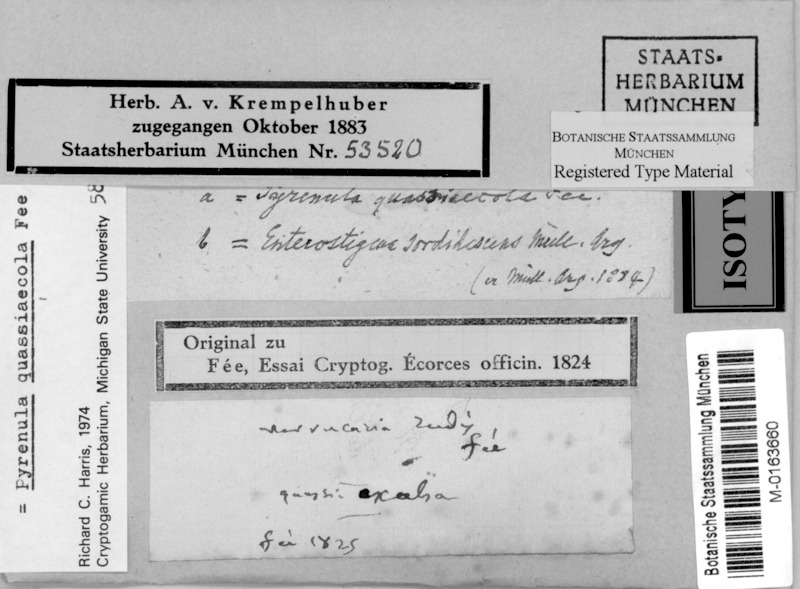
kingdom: Fungi
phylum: Ascomycota
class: Lecanoromycetes
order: Ostropales
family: Thelotremataceae
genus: Enterostigma
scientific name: Enterostigma
